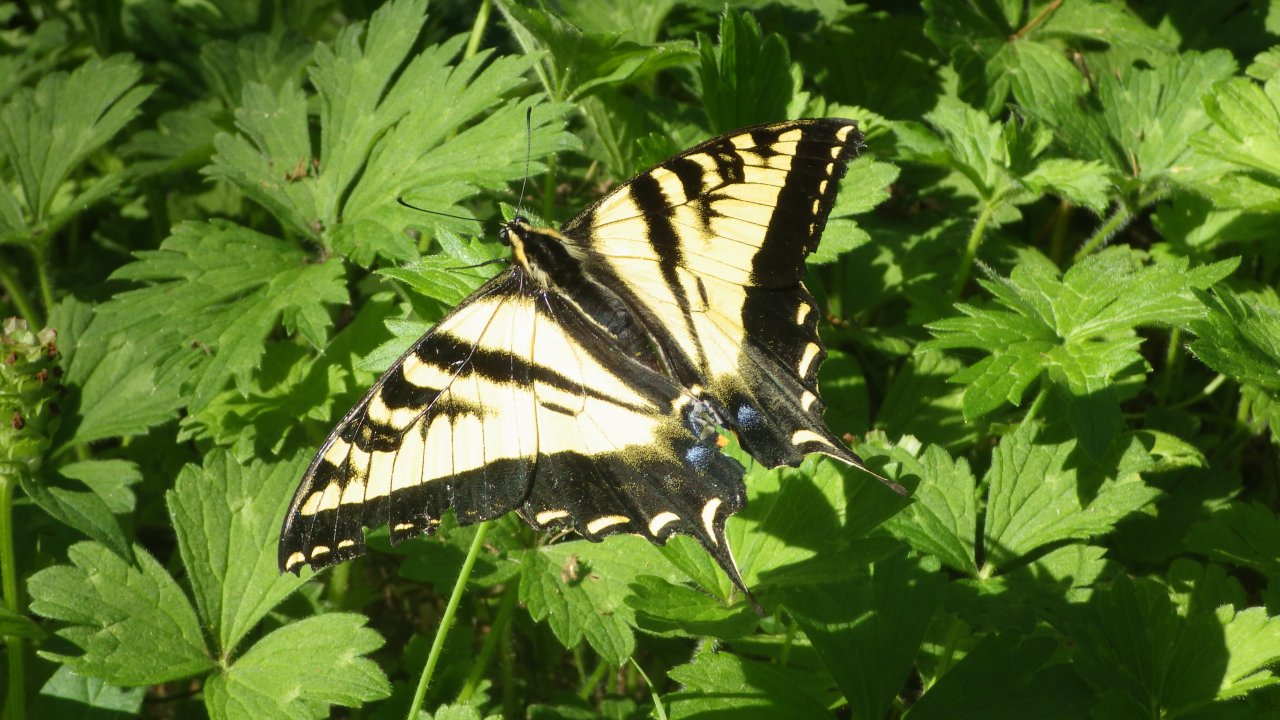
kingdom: Animalia
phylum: Arthropoda
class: Insecta
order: Lepidoptera
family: Papilionidae
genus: Pterourus
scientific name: Pterourus rutulus
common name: Western Tiger Swallowtail
